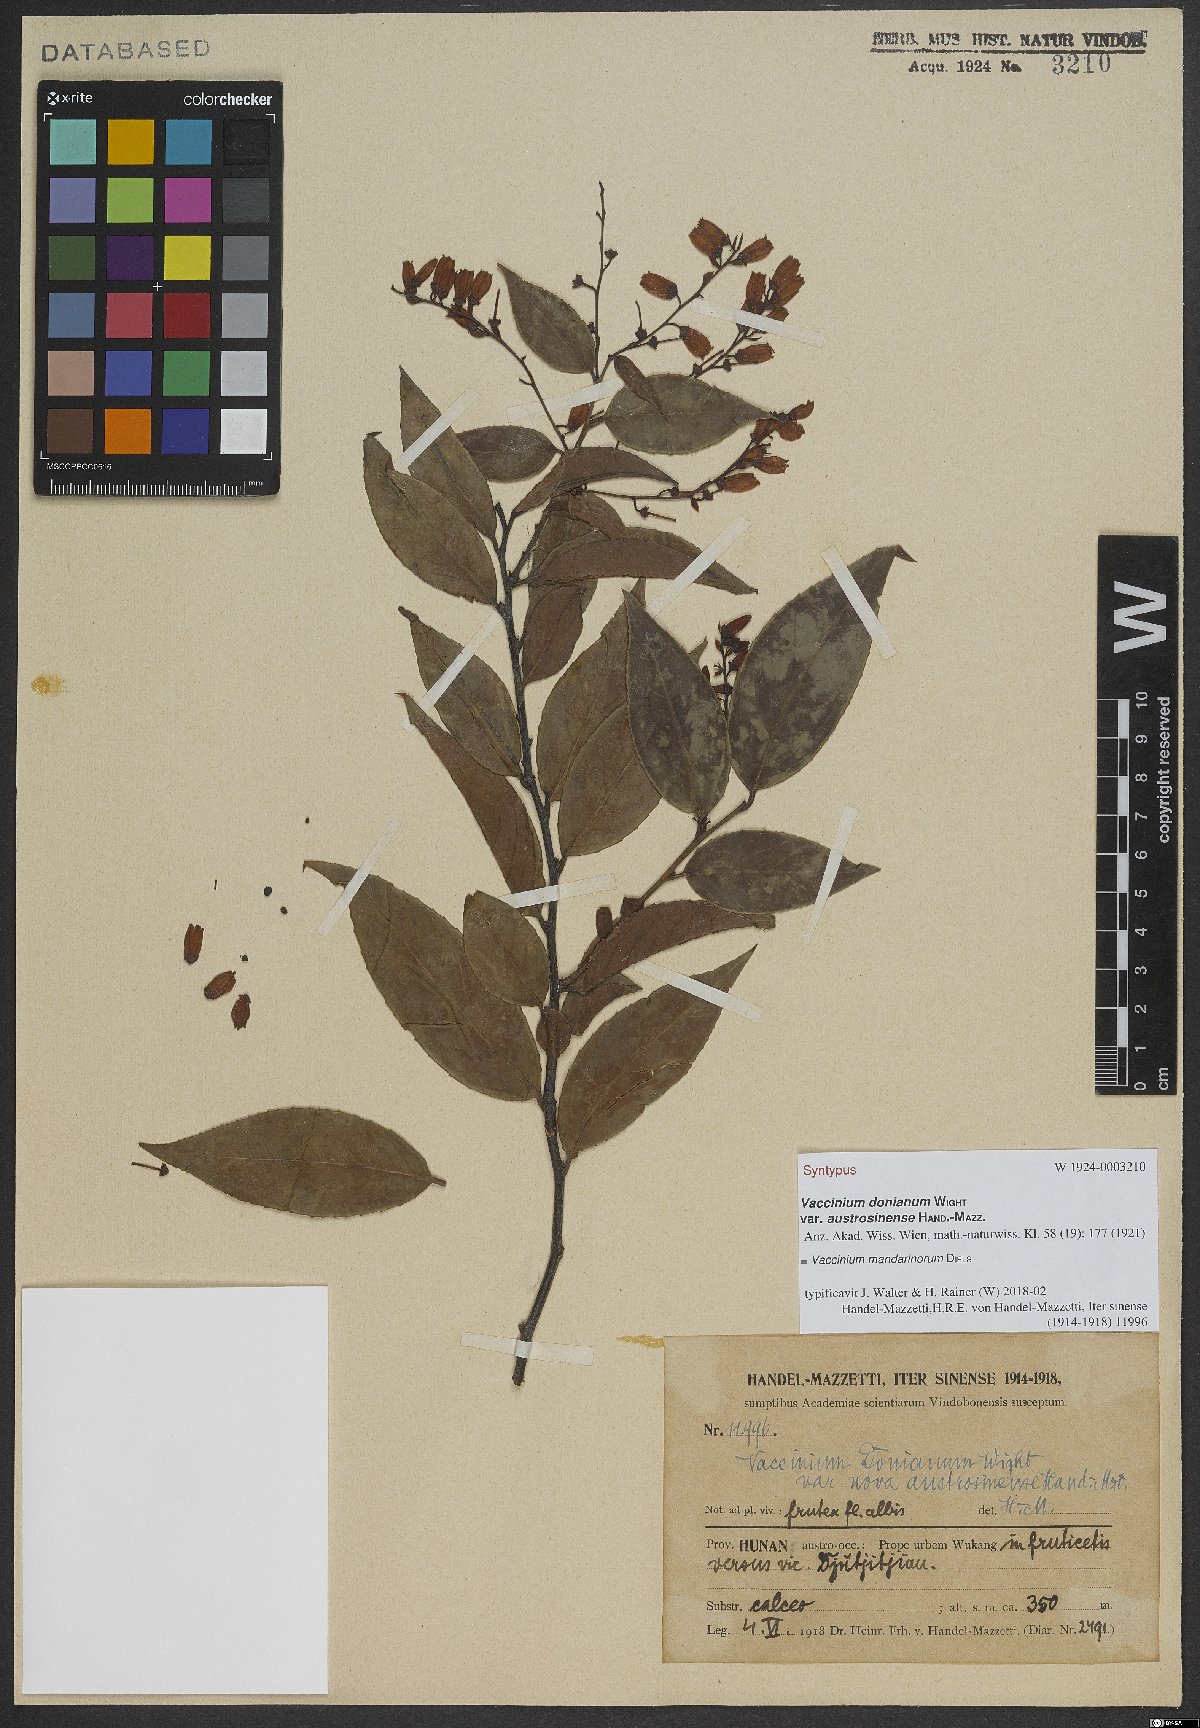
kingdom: Plantae
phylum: Tracheophyta
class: Magnoliopsida
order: Ericales
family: Ericaceae
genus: Vaccinium
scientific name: Vaccinium mandarinorum
